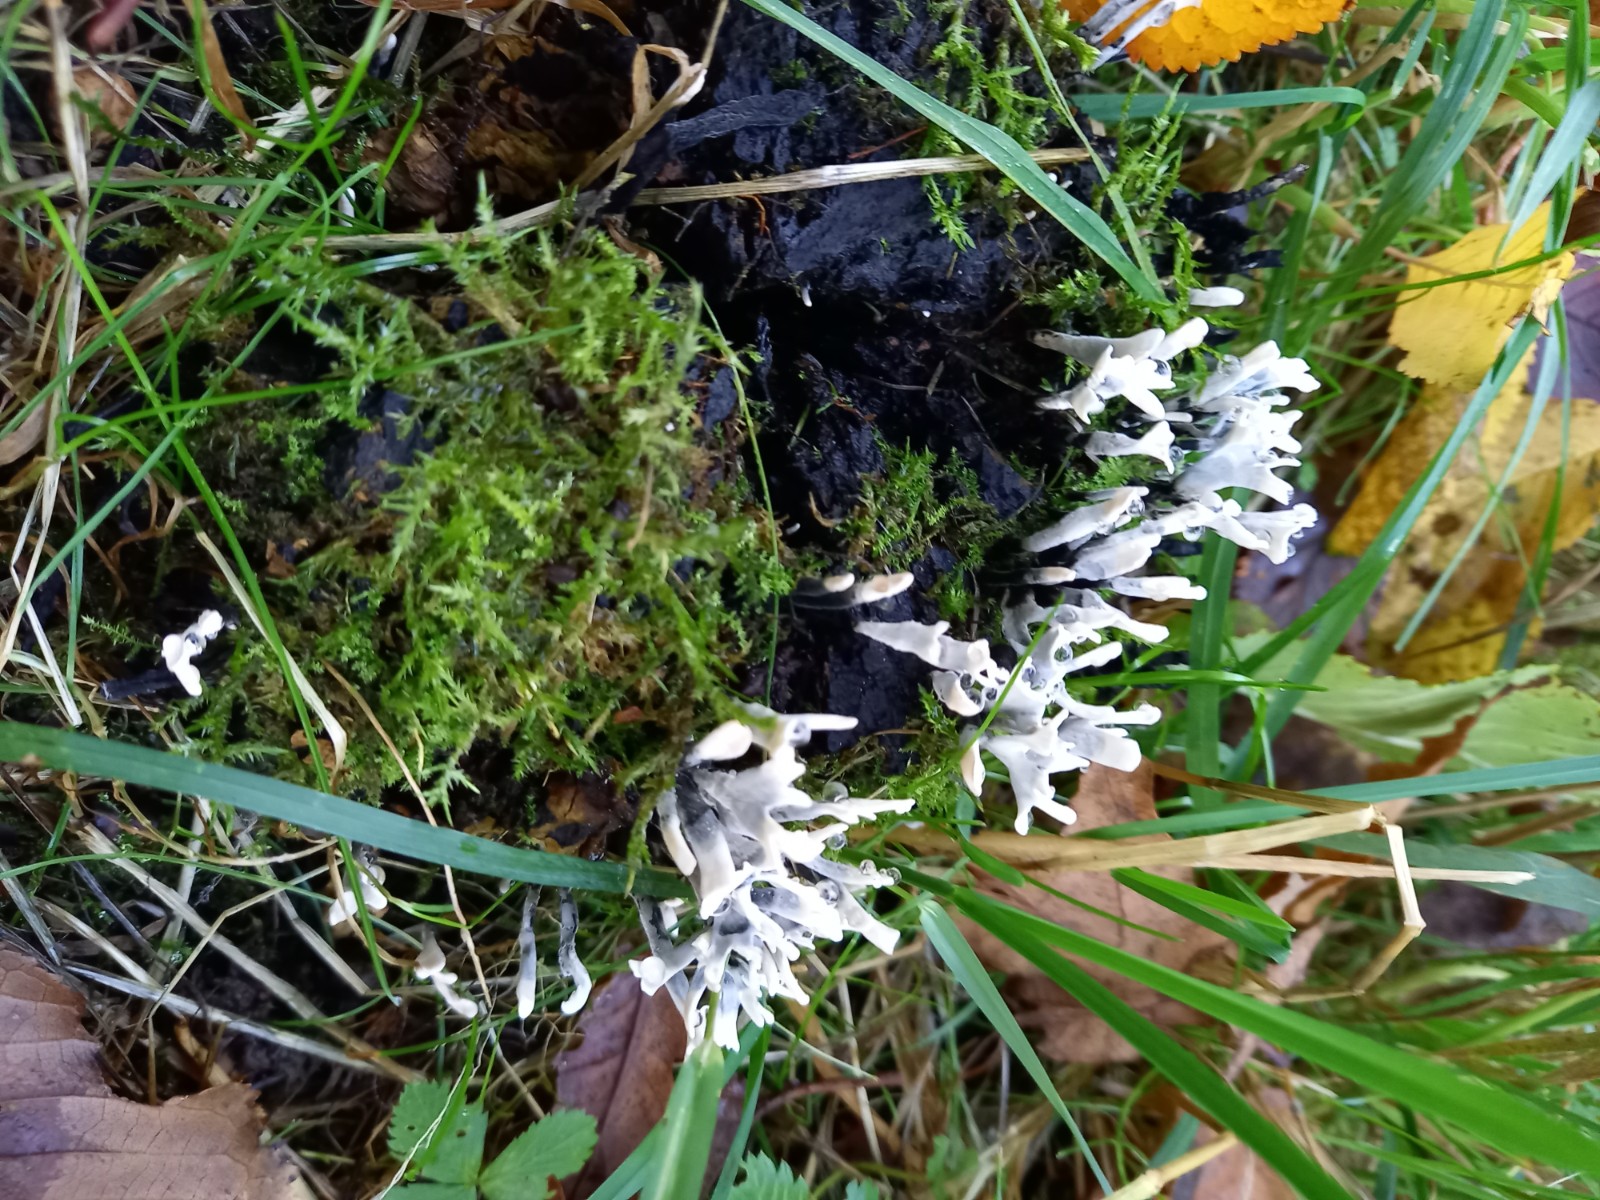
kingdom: Fungi
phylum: Ascomycota
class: Sordariomycetes
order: Xylariales
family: Xylariaceae
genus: Xylaria
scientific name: Xylaria hypoxylon
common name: grenet stødsvamp
